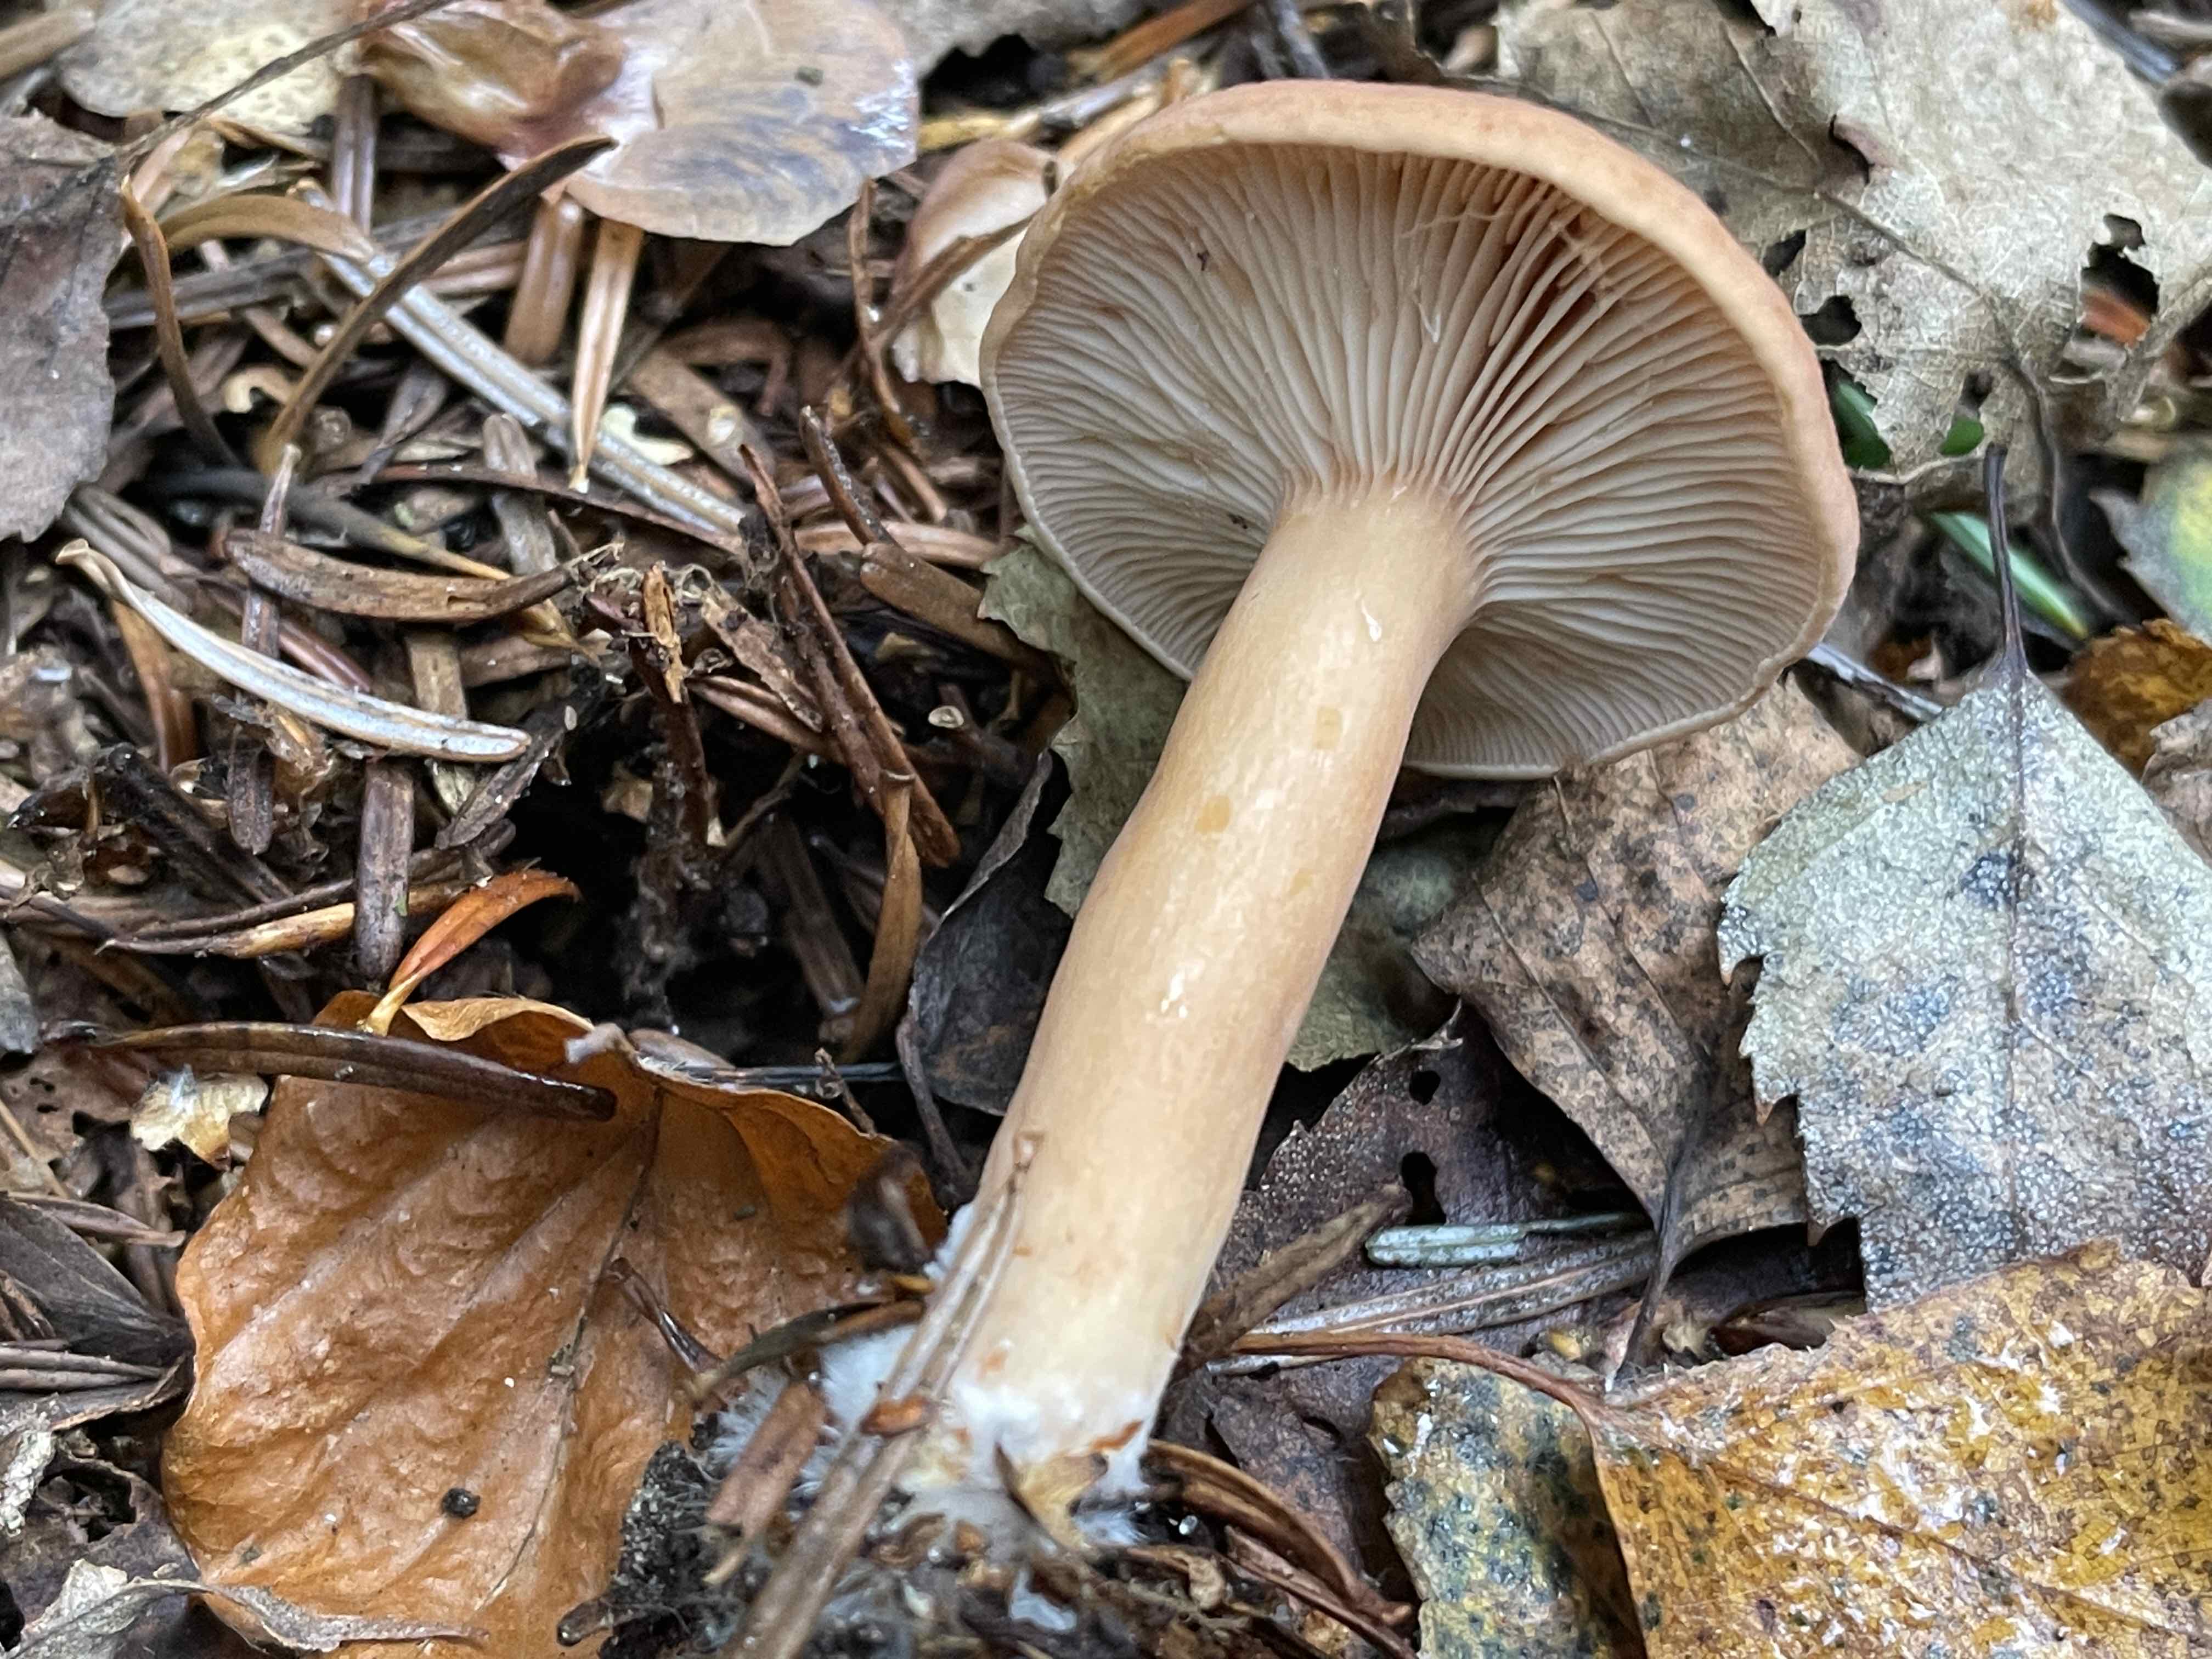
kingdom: Fungi
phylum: Basidiomycota
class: Agaricomycetes
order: Russulales
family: Russulaceae
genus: Lactarius
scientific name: Lactarius subdulcis
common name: sødlig mælkehat
